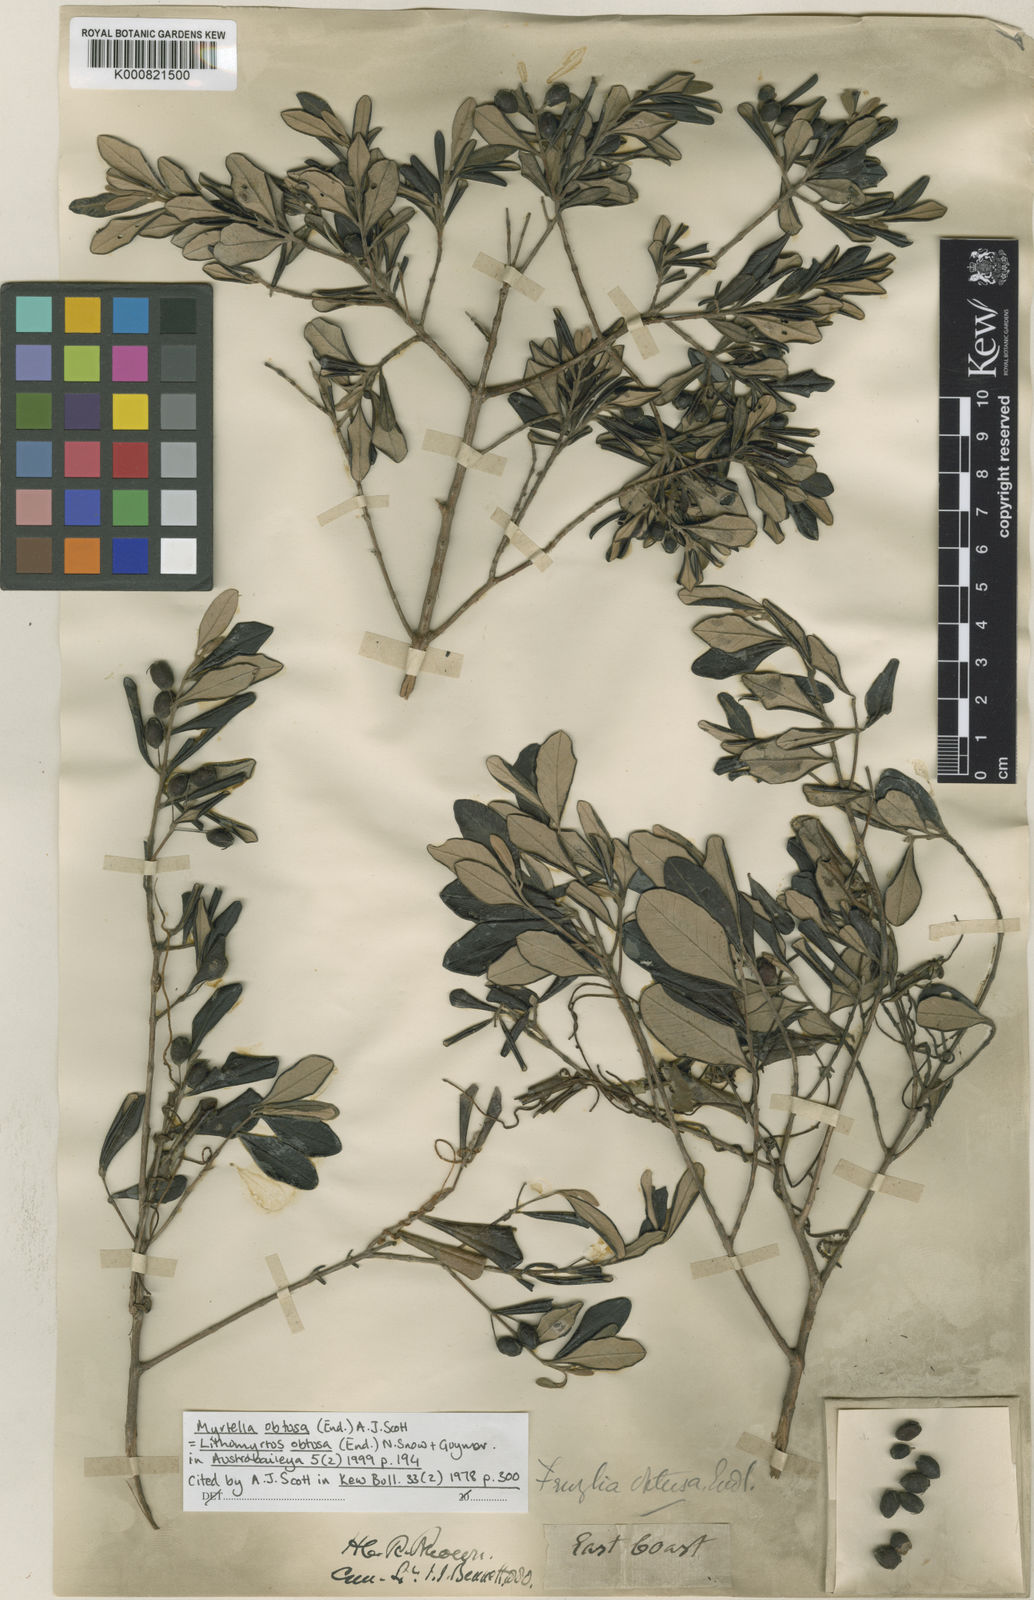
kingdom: Plantae
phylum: Tracheophyta
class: Magnoliopsida
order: Myrtales
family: Myrtaceae
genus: Lithomyrtus
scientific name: Lithomyrtus obtusa
